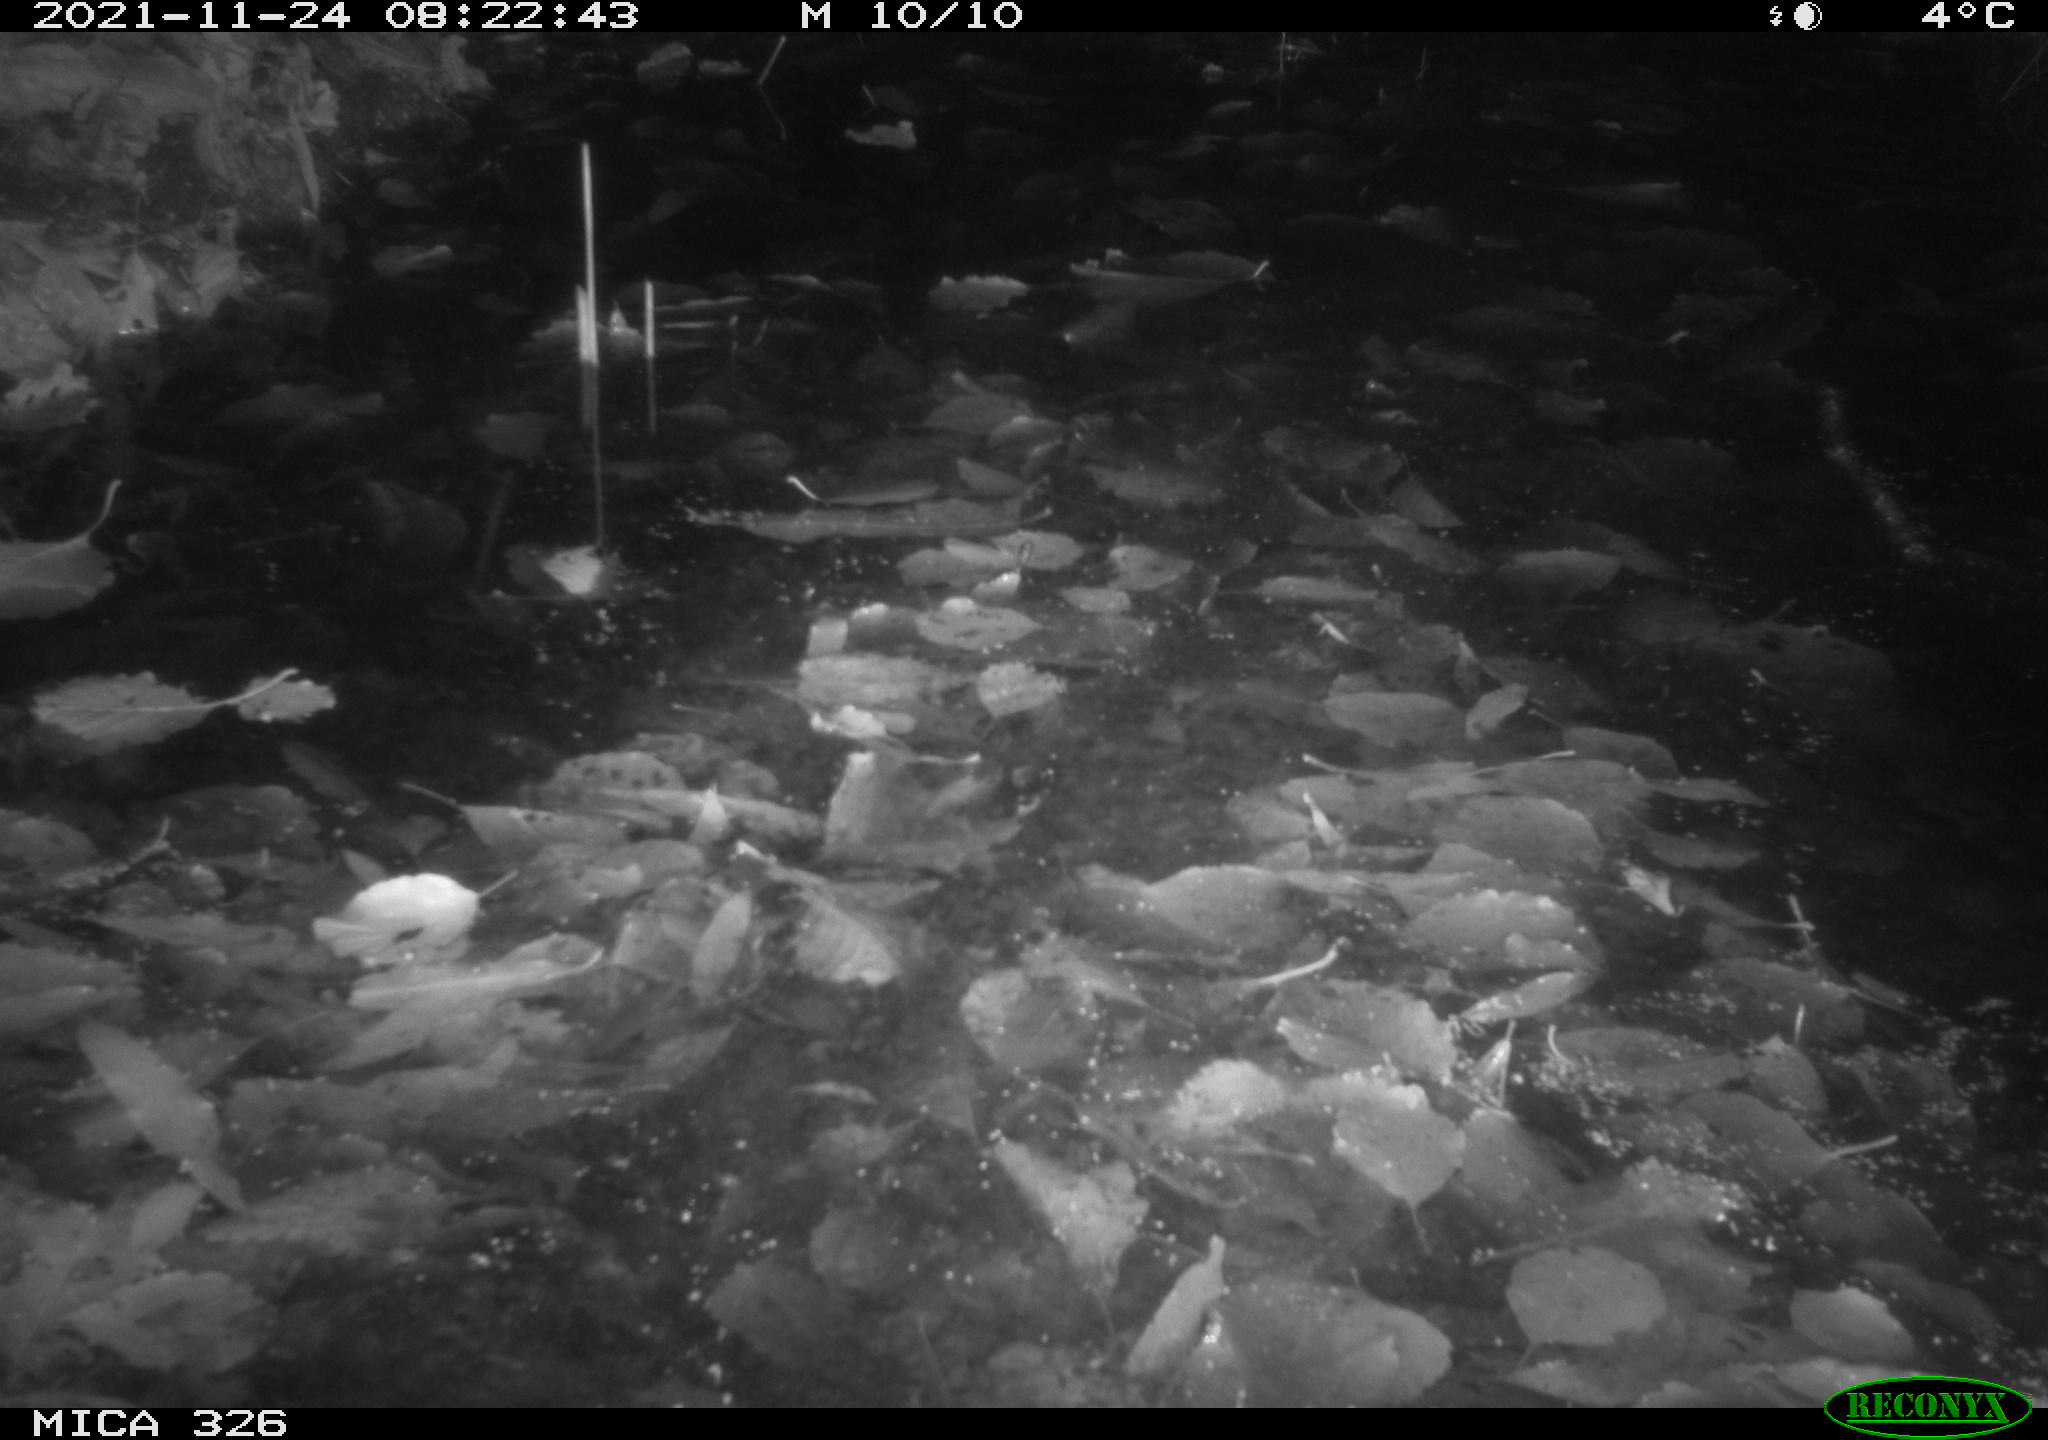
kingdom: Animalia
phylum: Chordata
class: Mammalia
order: Carnivora
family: Mustelidae
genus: Lutra
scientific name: Lutra lutra
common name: European otter
